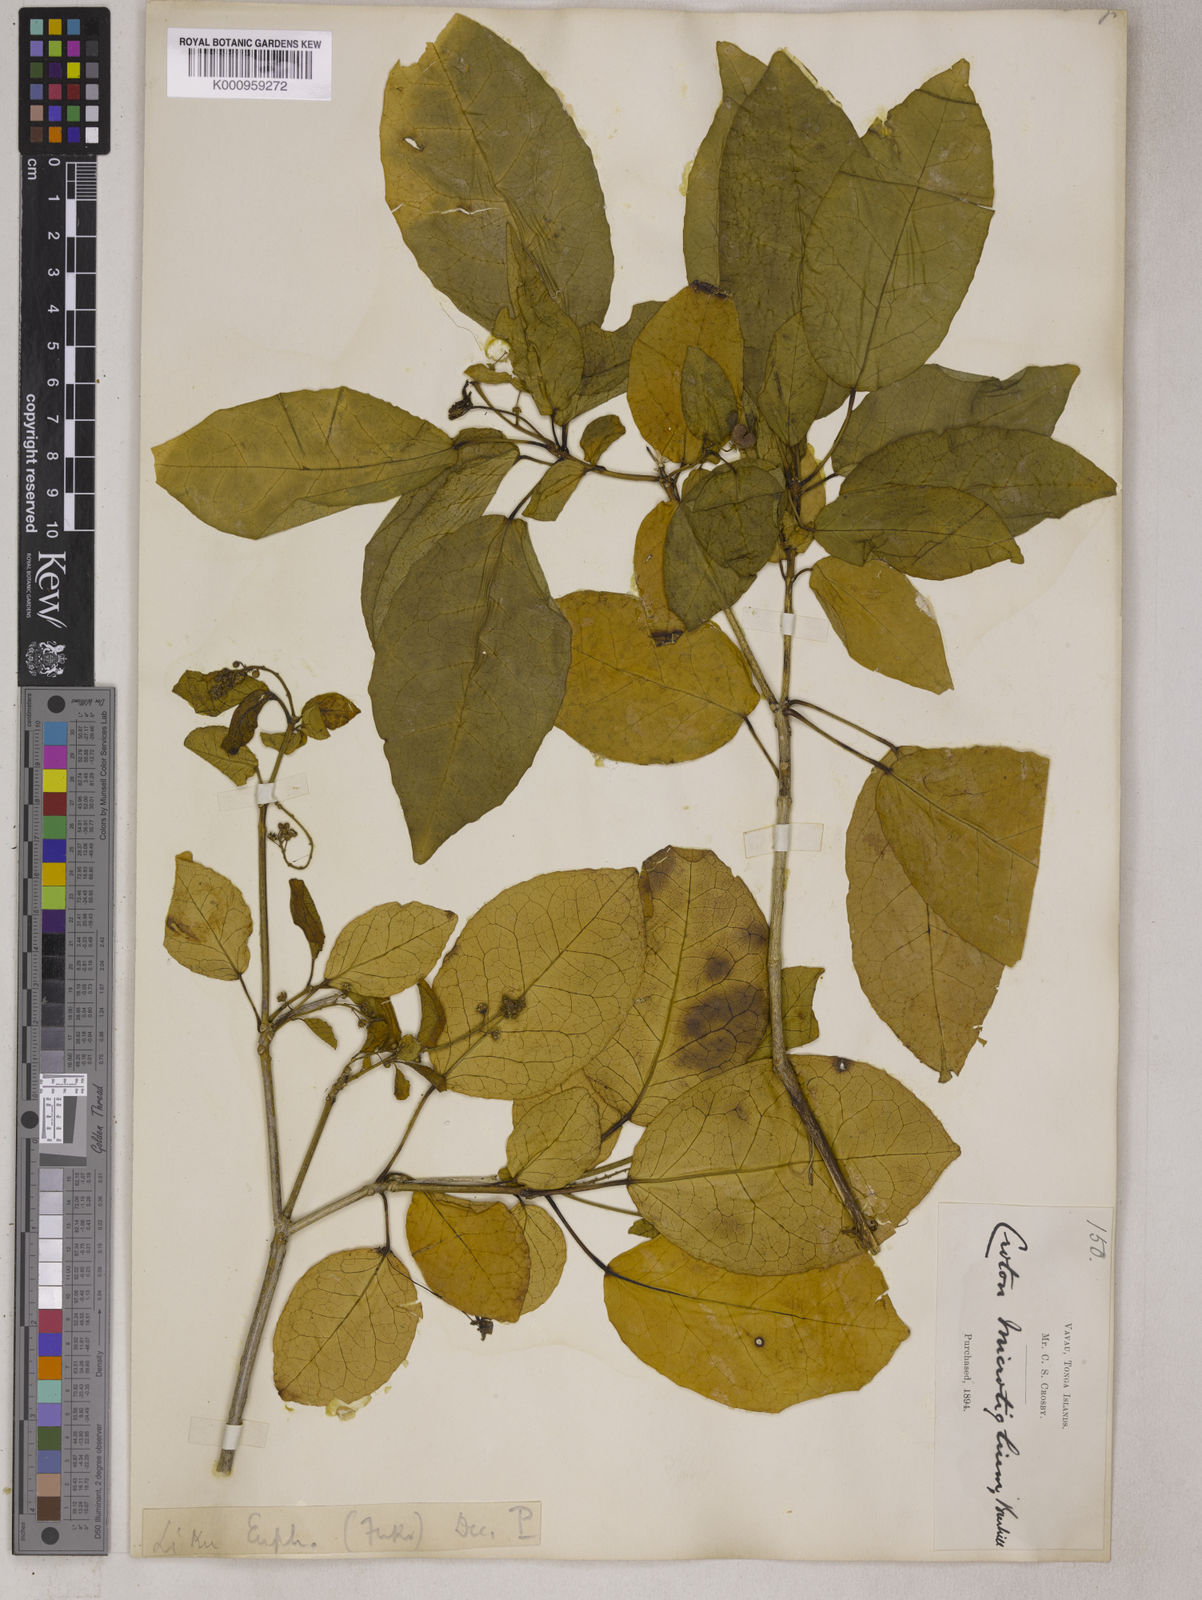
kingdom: Plantae
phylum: Tracheophyta
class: Magnoliopsida
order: Malpighiales
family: Euphorbiaceae
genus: Croton
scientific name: Croton
